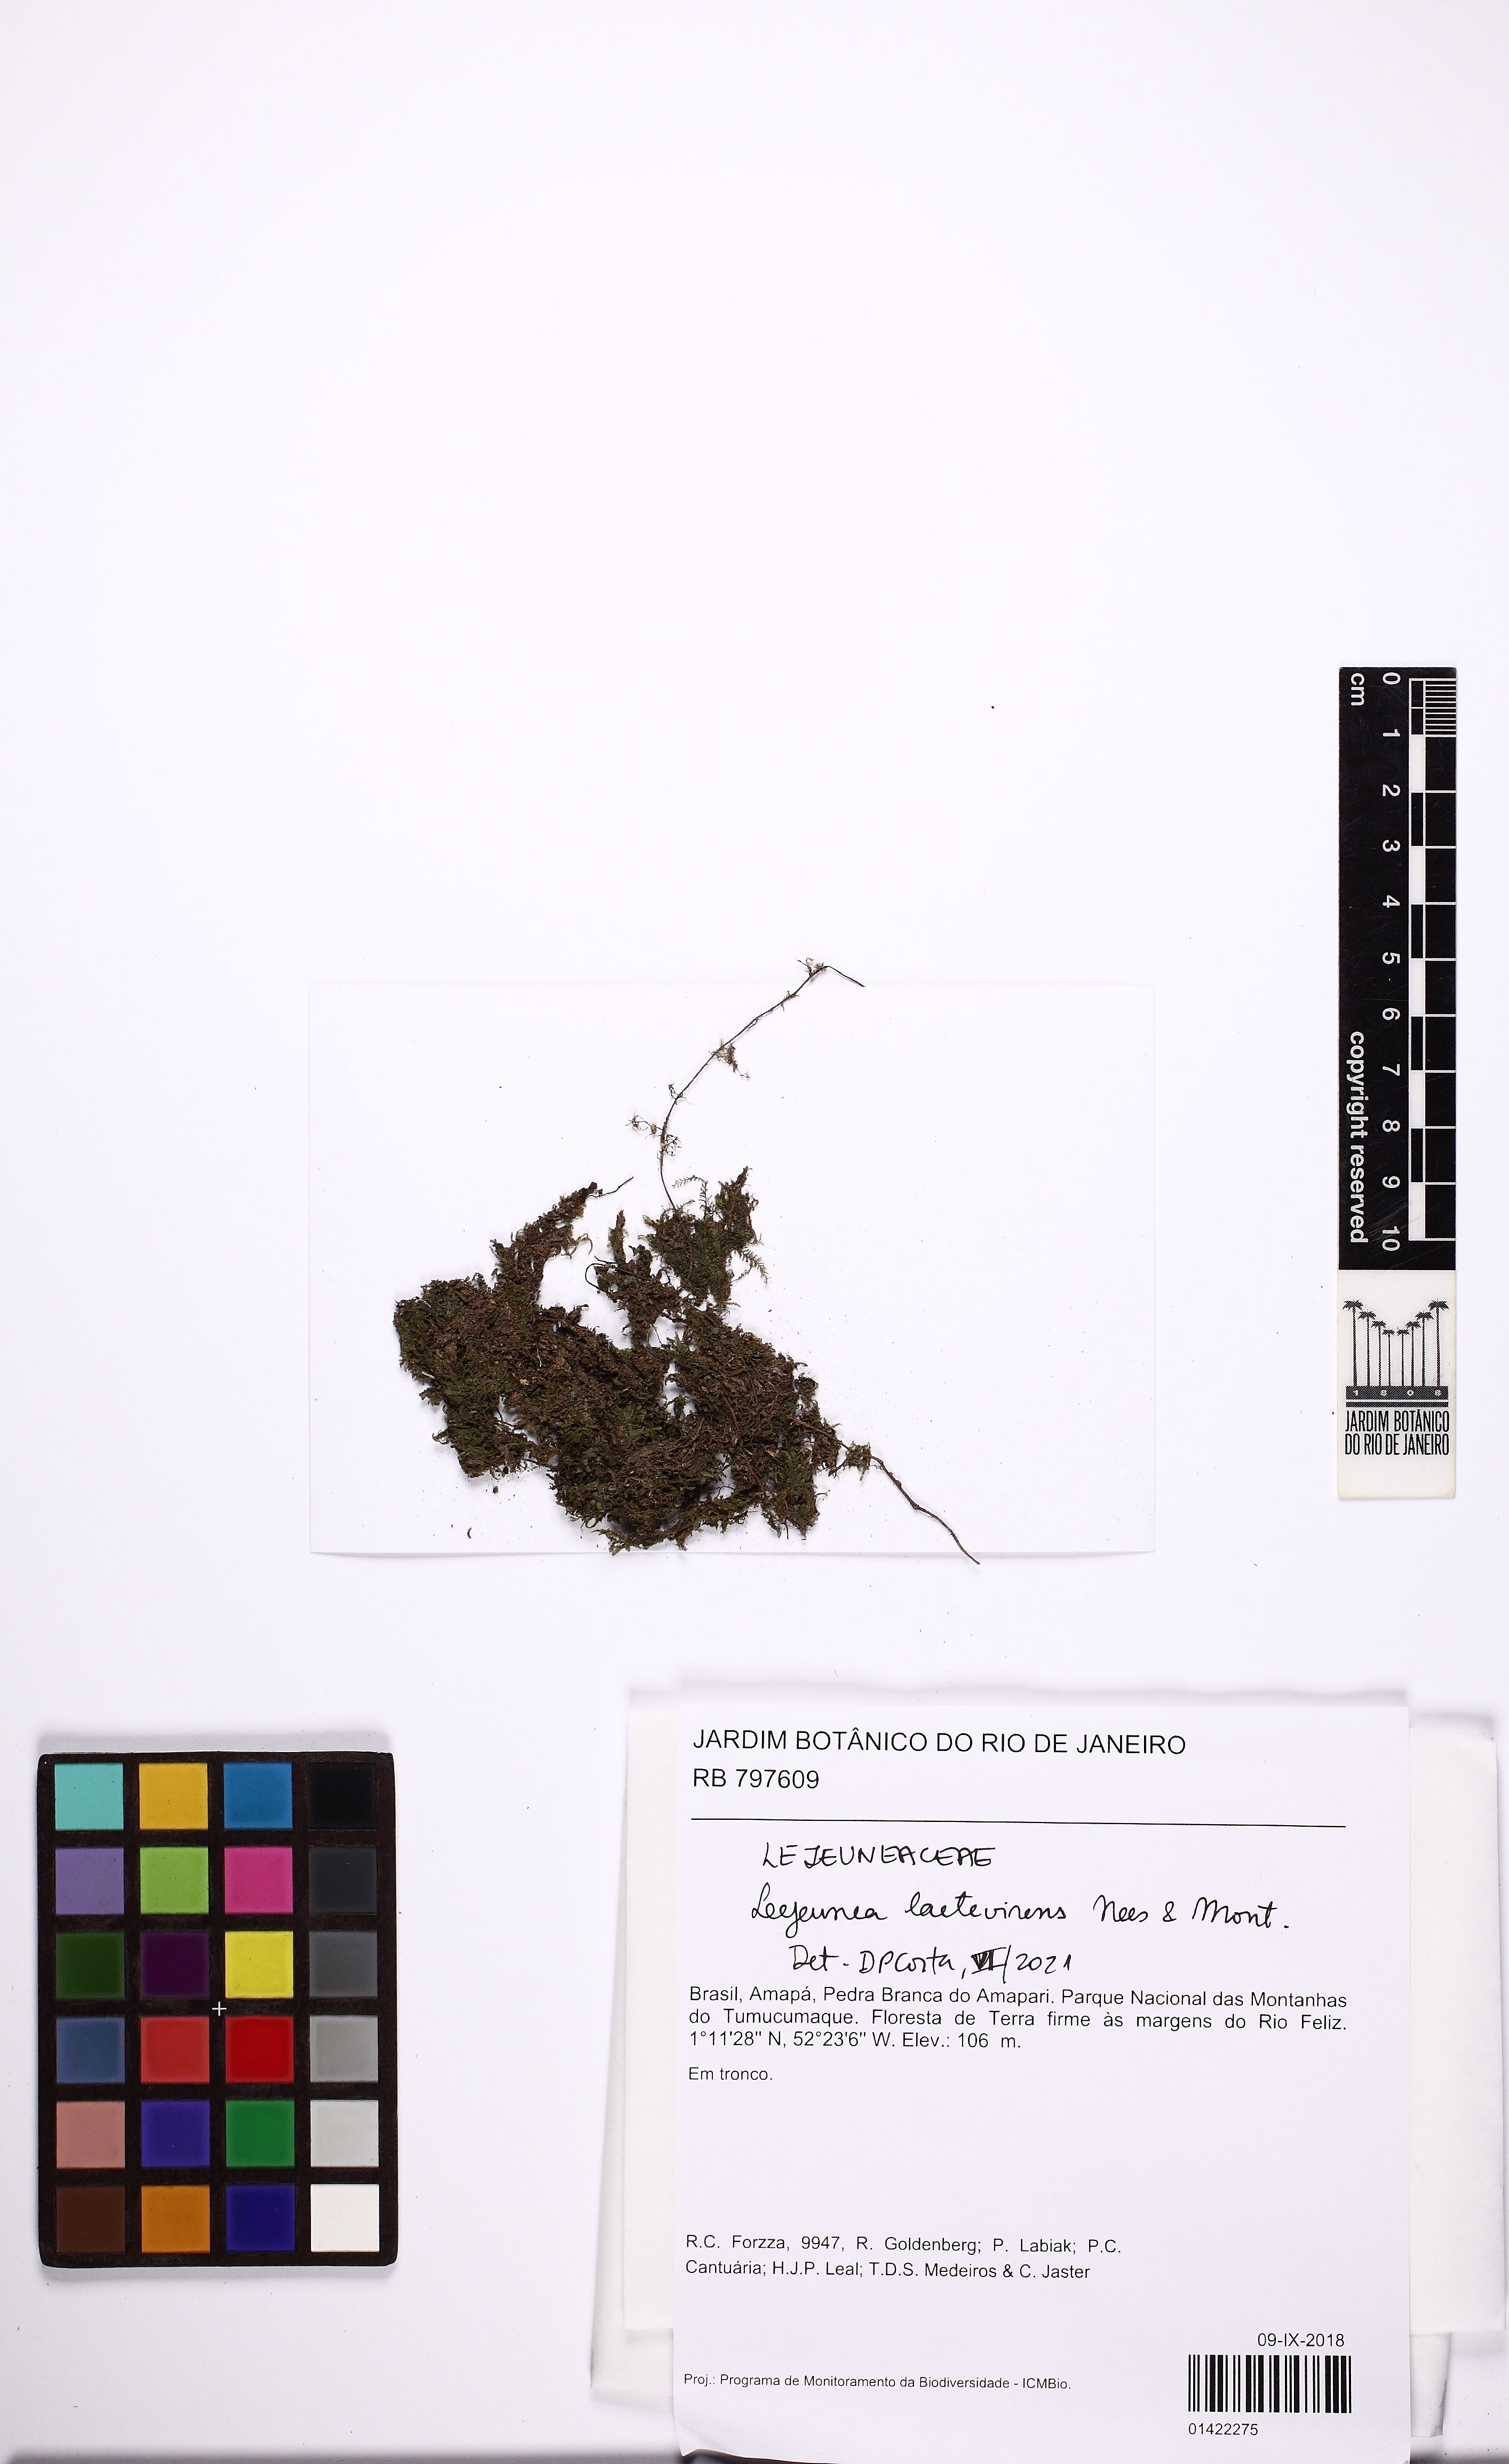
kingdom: Plantae
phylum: Marchantiophyta
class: Jungermanniopsida
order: Porellales
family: Lejeuneaceae
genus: Lejeunea
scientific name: Lejeunea laetevirens
